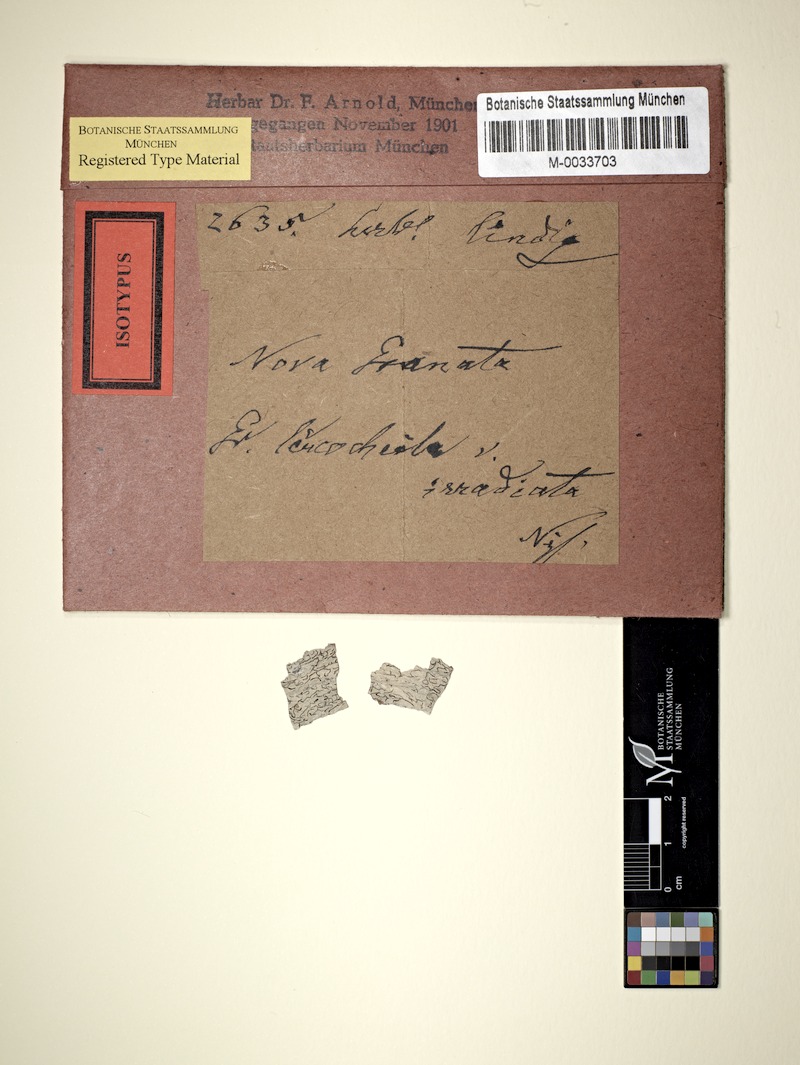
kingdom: Fungi
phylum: Ascomycota
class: Lecanoromycetes
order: Ostropales
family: Graphidaceae
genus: Phaeographis
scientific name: Phaeographis leucocheila
